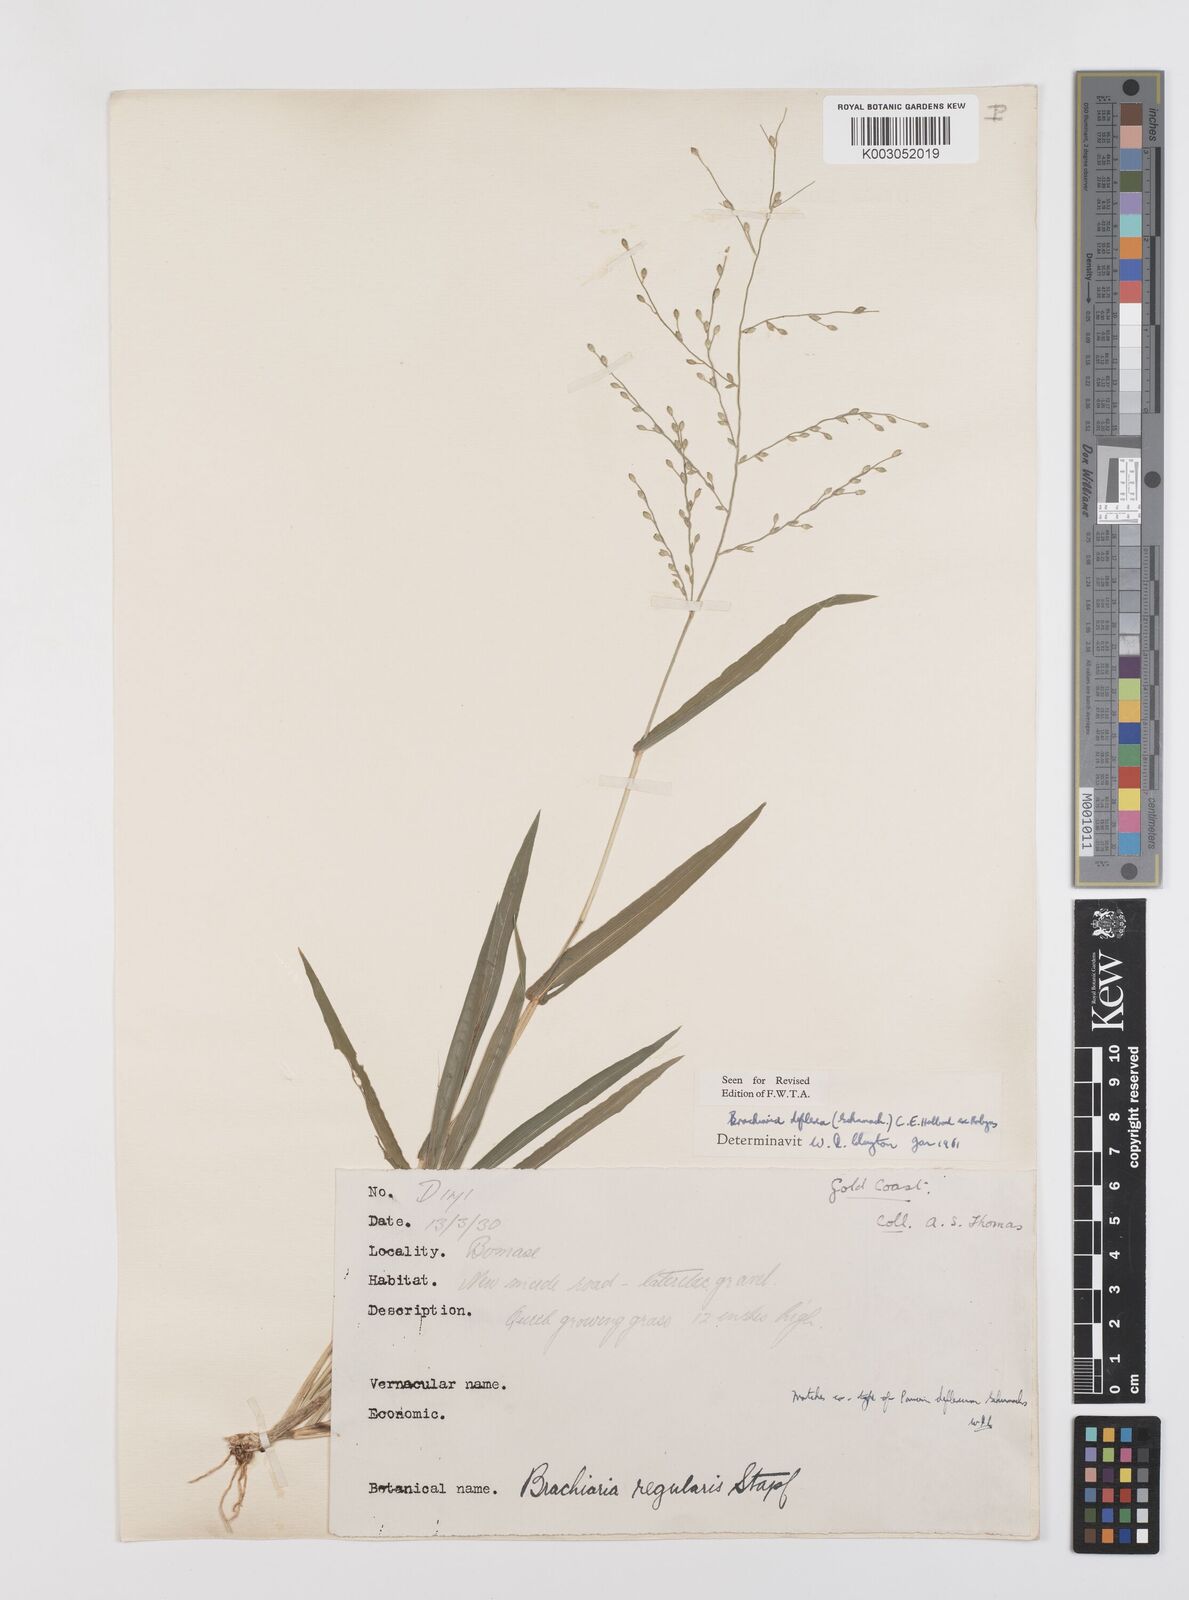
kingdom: Plantae
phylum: Tracheophyta
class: Liliopsida
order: Poales
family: Poaceae
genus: Urochloa
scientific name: Urochloa deflexa
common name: Guinea millet
